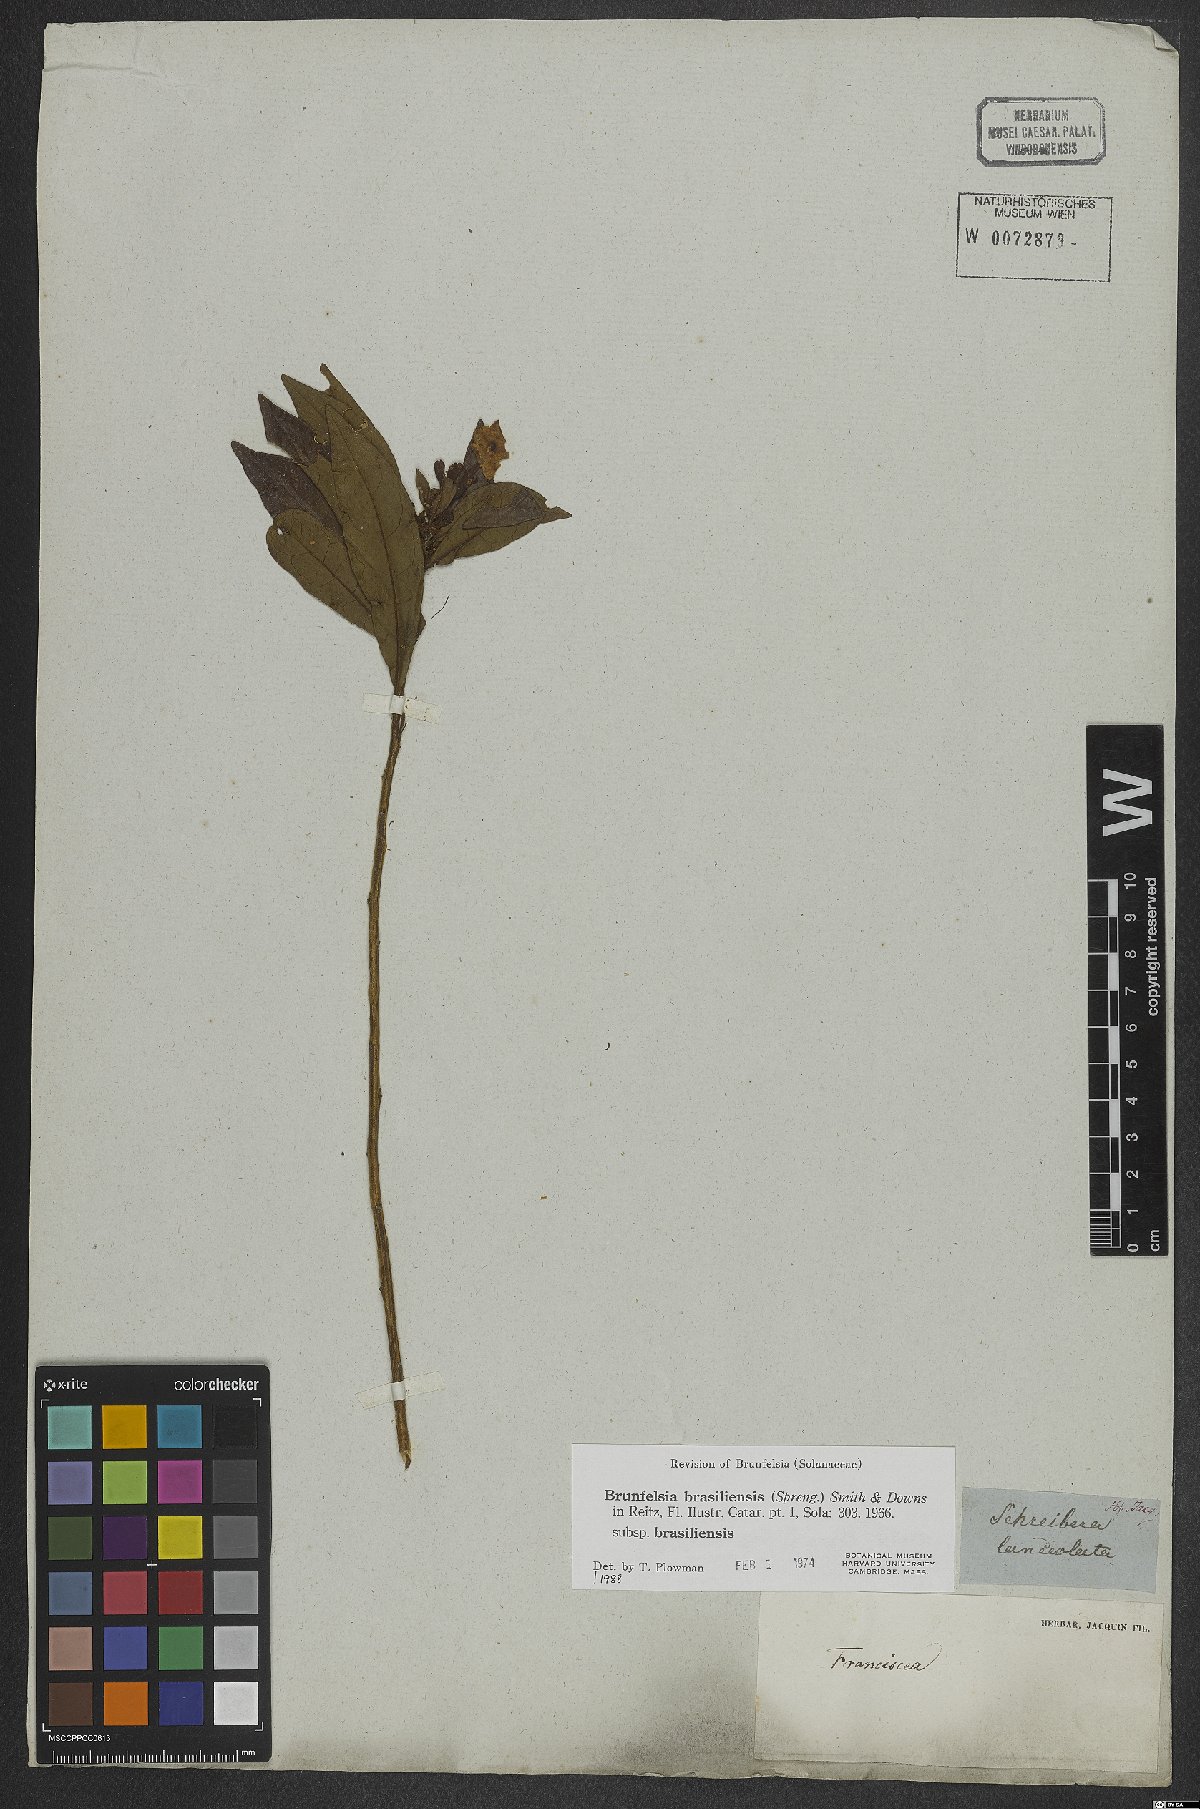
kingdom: Plantae
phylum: Tracheophyta
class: Magnoliopsida
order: Solanales
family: Solanaceae
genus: Brunfelsia
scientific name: Brunfelsia brasiliensis
